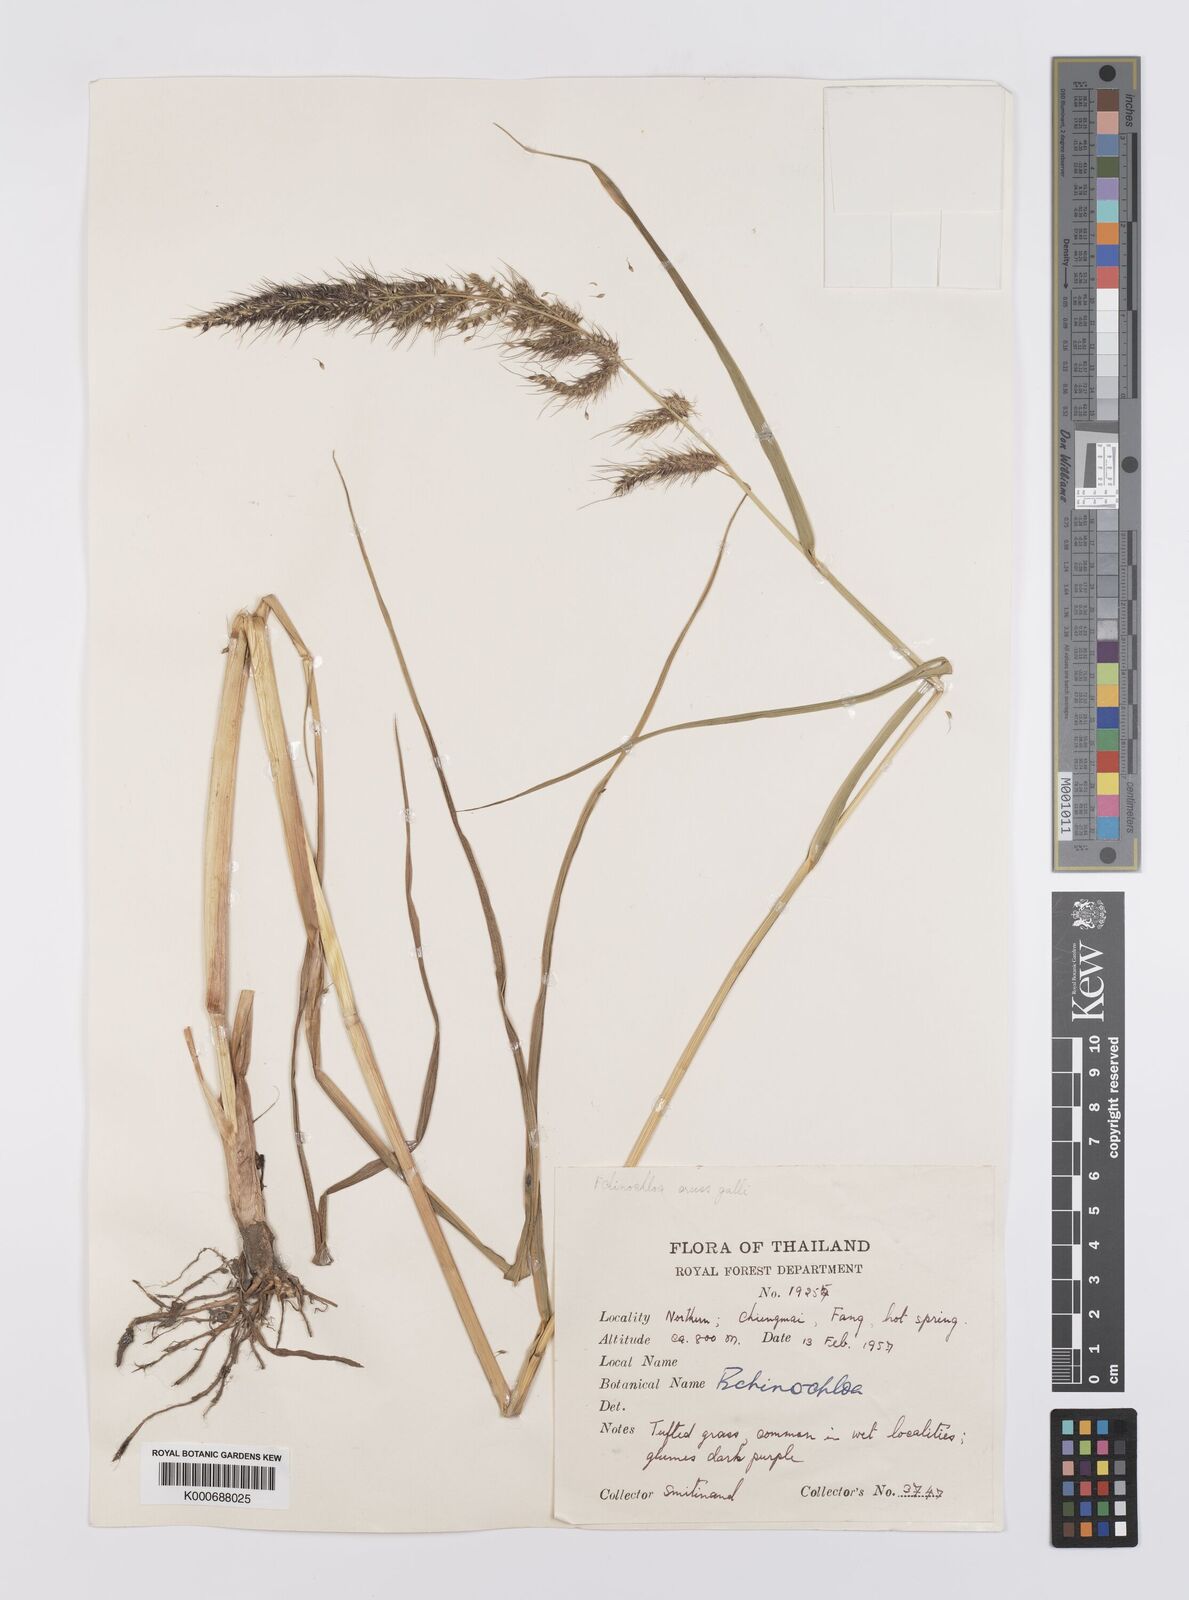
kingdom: Plantae
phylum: Tracheophyta
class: Liliopsida
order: Poales
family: Poaceae
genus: Echinochloa
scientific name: Echinochloa crus-galli
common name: Cockspur
